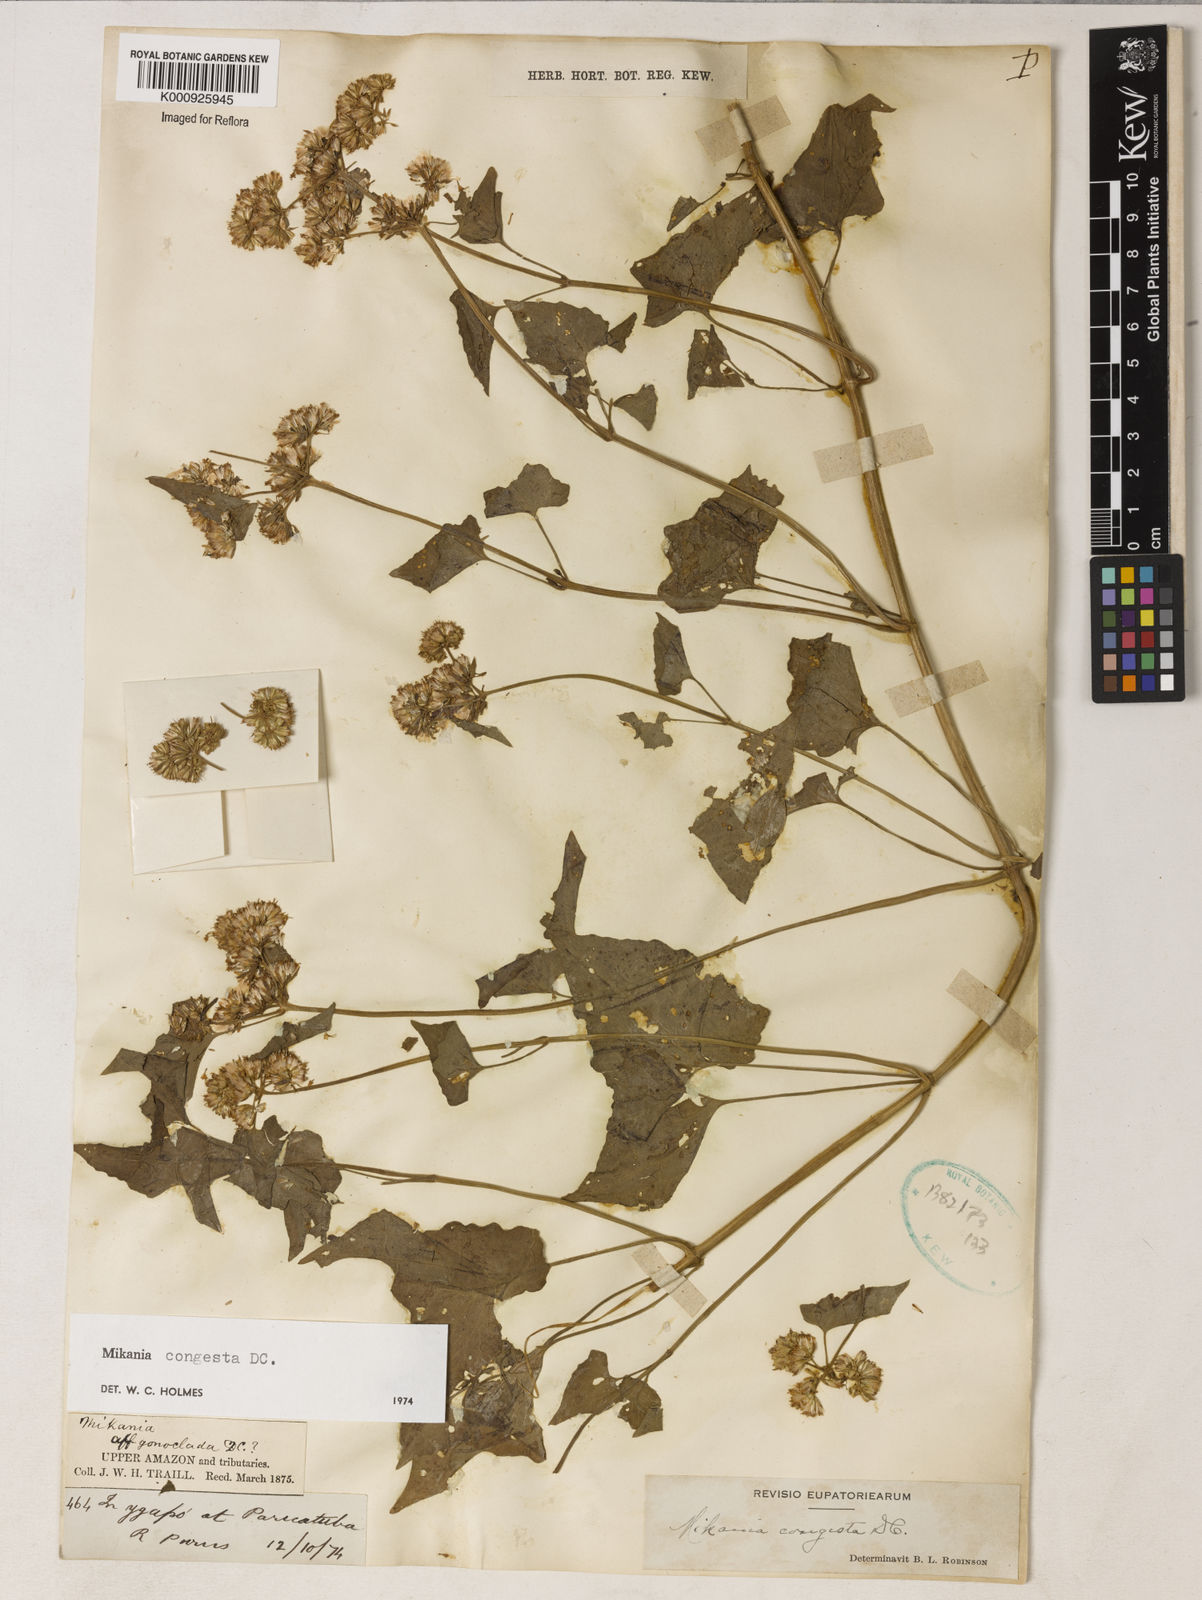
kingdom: Plantae
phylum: Tracheophyta
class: Magnoliopsida
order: Asterales
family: Asteraceae
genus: Mikania
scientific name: Mikania congesta
